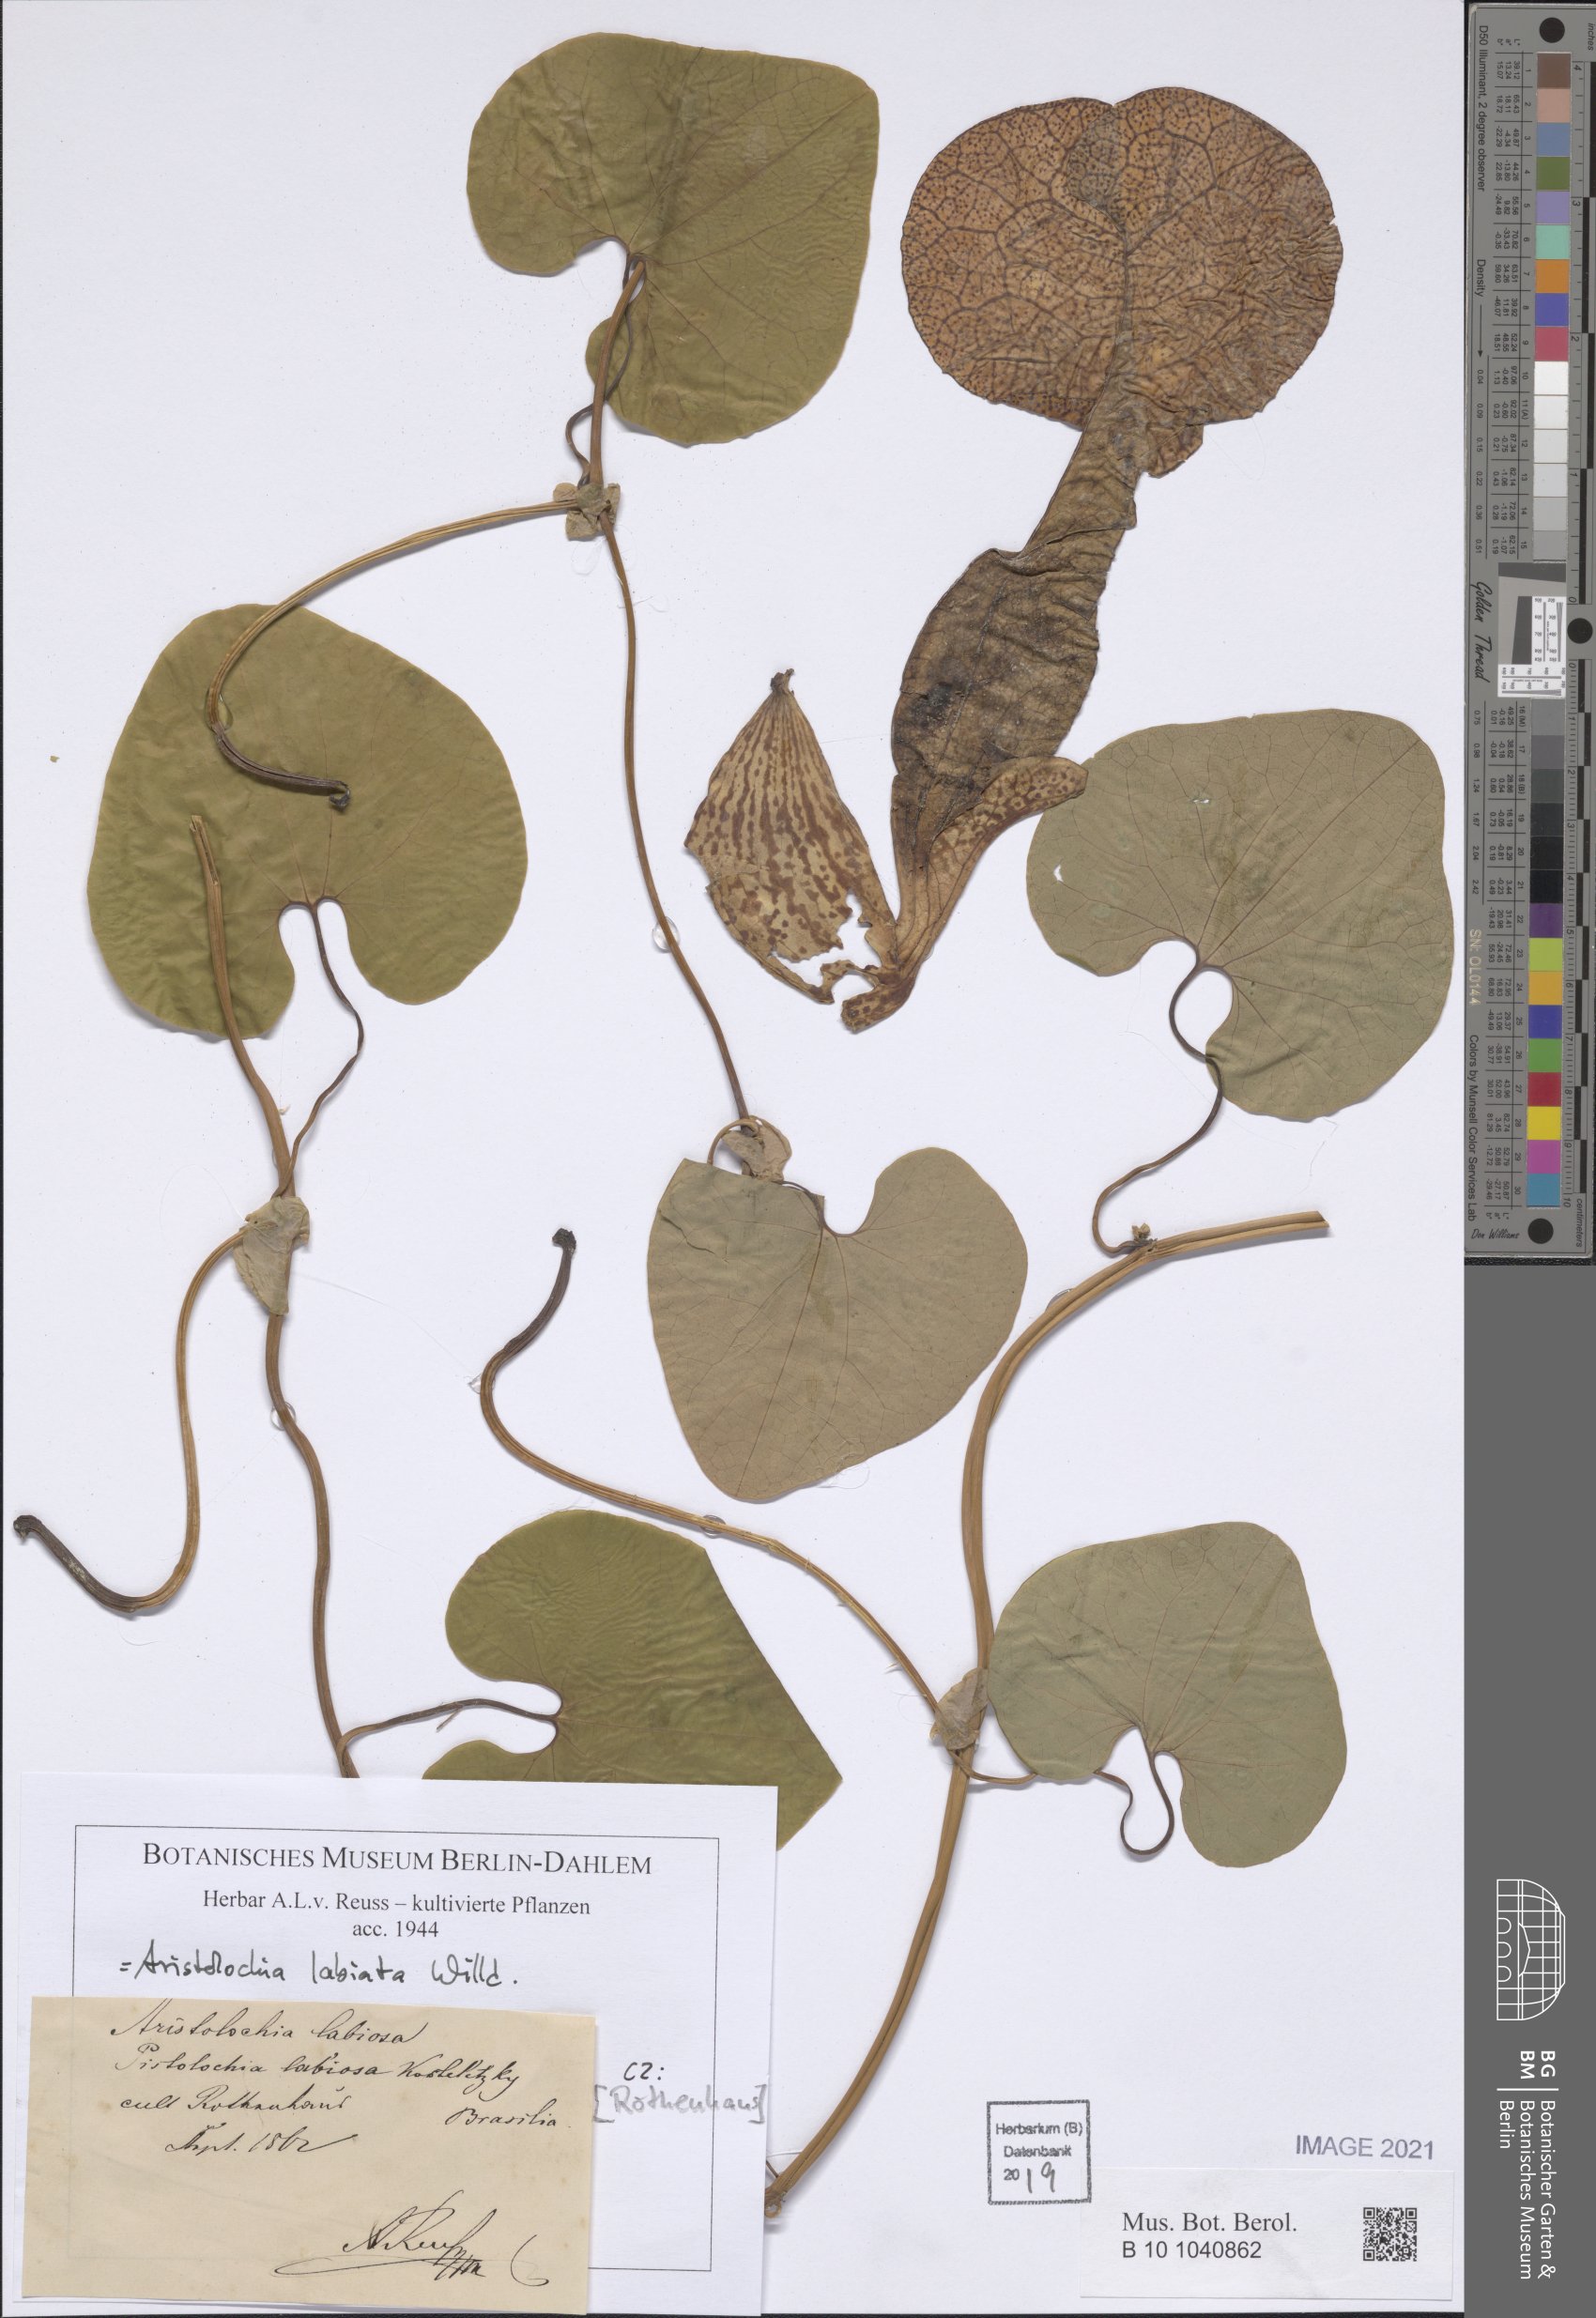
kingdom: Plantae
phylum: Tracheophyta
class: Magnoliopsida
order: Piperales
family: Aristolochiaceae
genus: Aristolochia
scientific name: Aristolochia labiata
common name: Mottled dutchman's pipe
